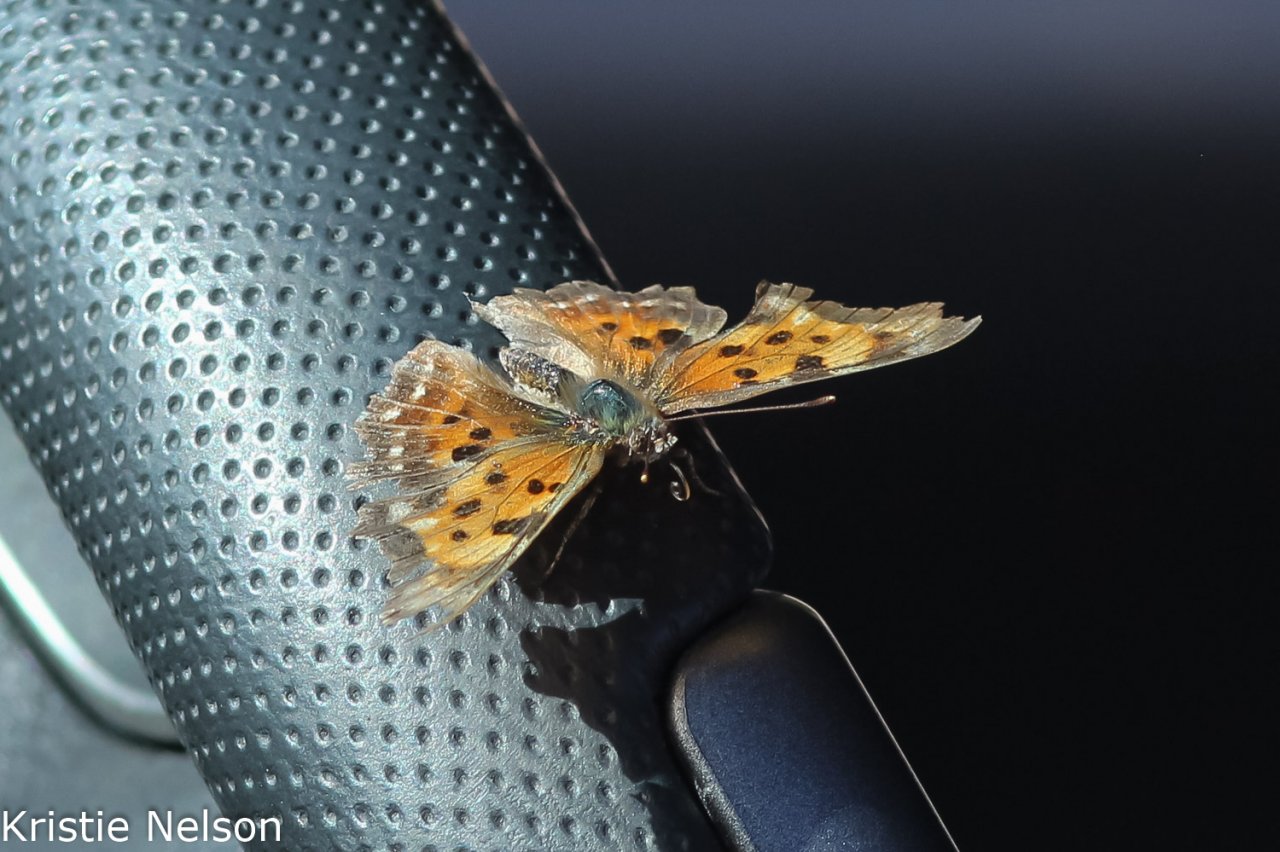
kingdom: Animalia
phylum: Arthropoda
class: Insecta
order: Lepidoptera
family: Nymphalidae
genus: Polygonia
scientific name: Polygonia faunus
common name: Green Comma
